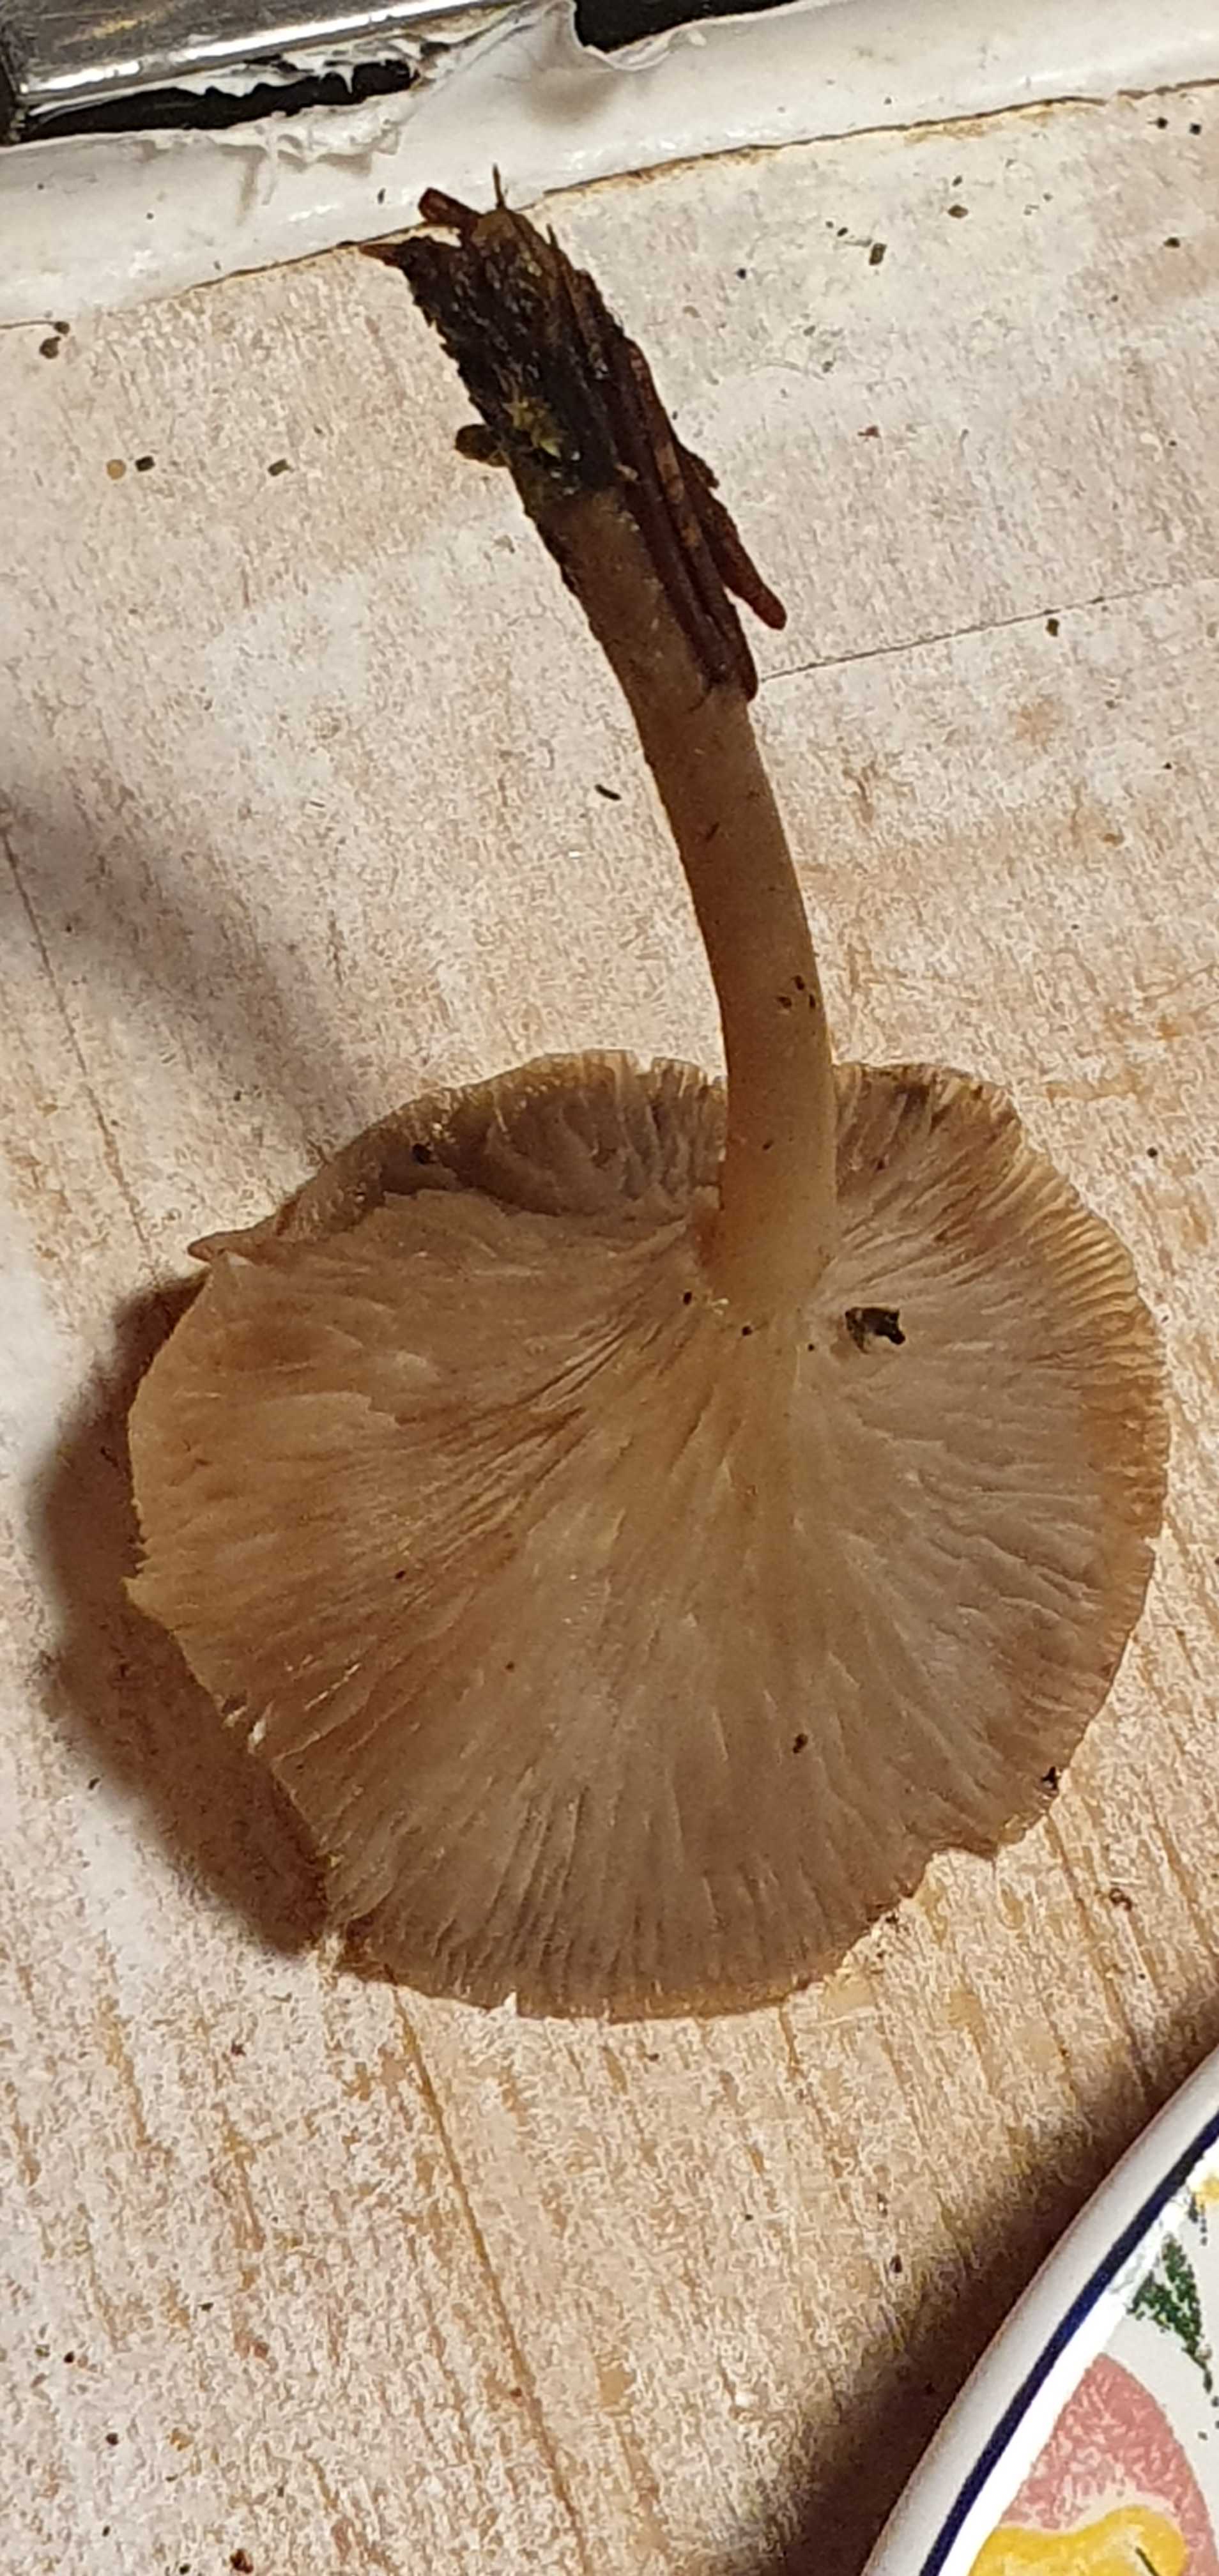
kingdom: Fungi
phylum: Basidiomycota
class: Agaricomycetes
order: Agaricales
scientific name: Agaricales
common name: champignonordenen
